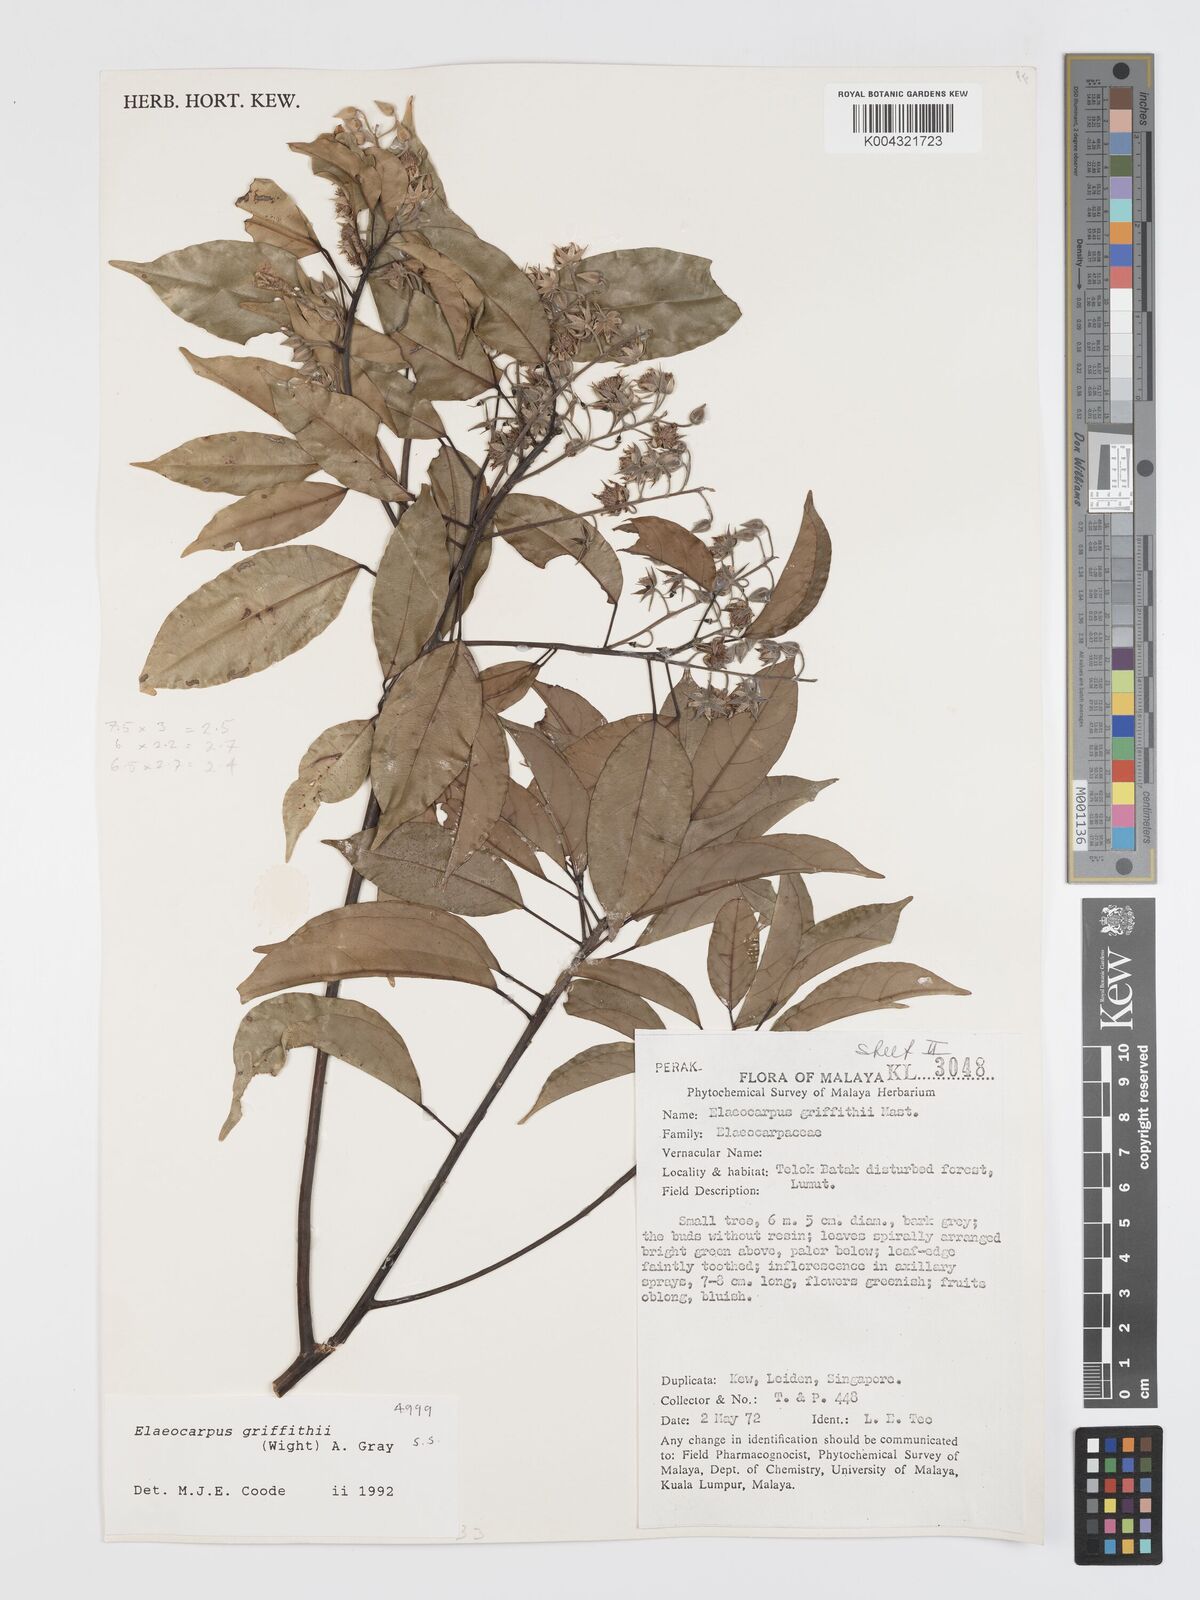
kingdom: Plantae
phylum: Tracheophyta
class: Magnoliopsida
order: Oxalidales
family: Elaeocarpaceae
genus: Elaeocarpus
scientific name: Elaeocarpus griffithii
